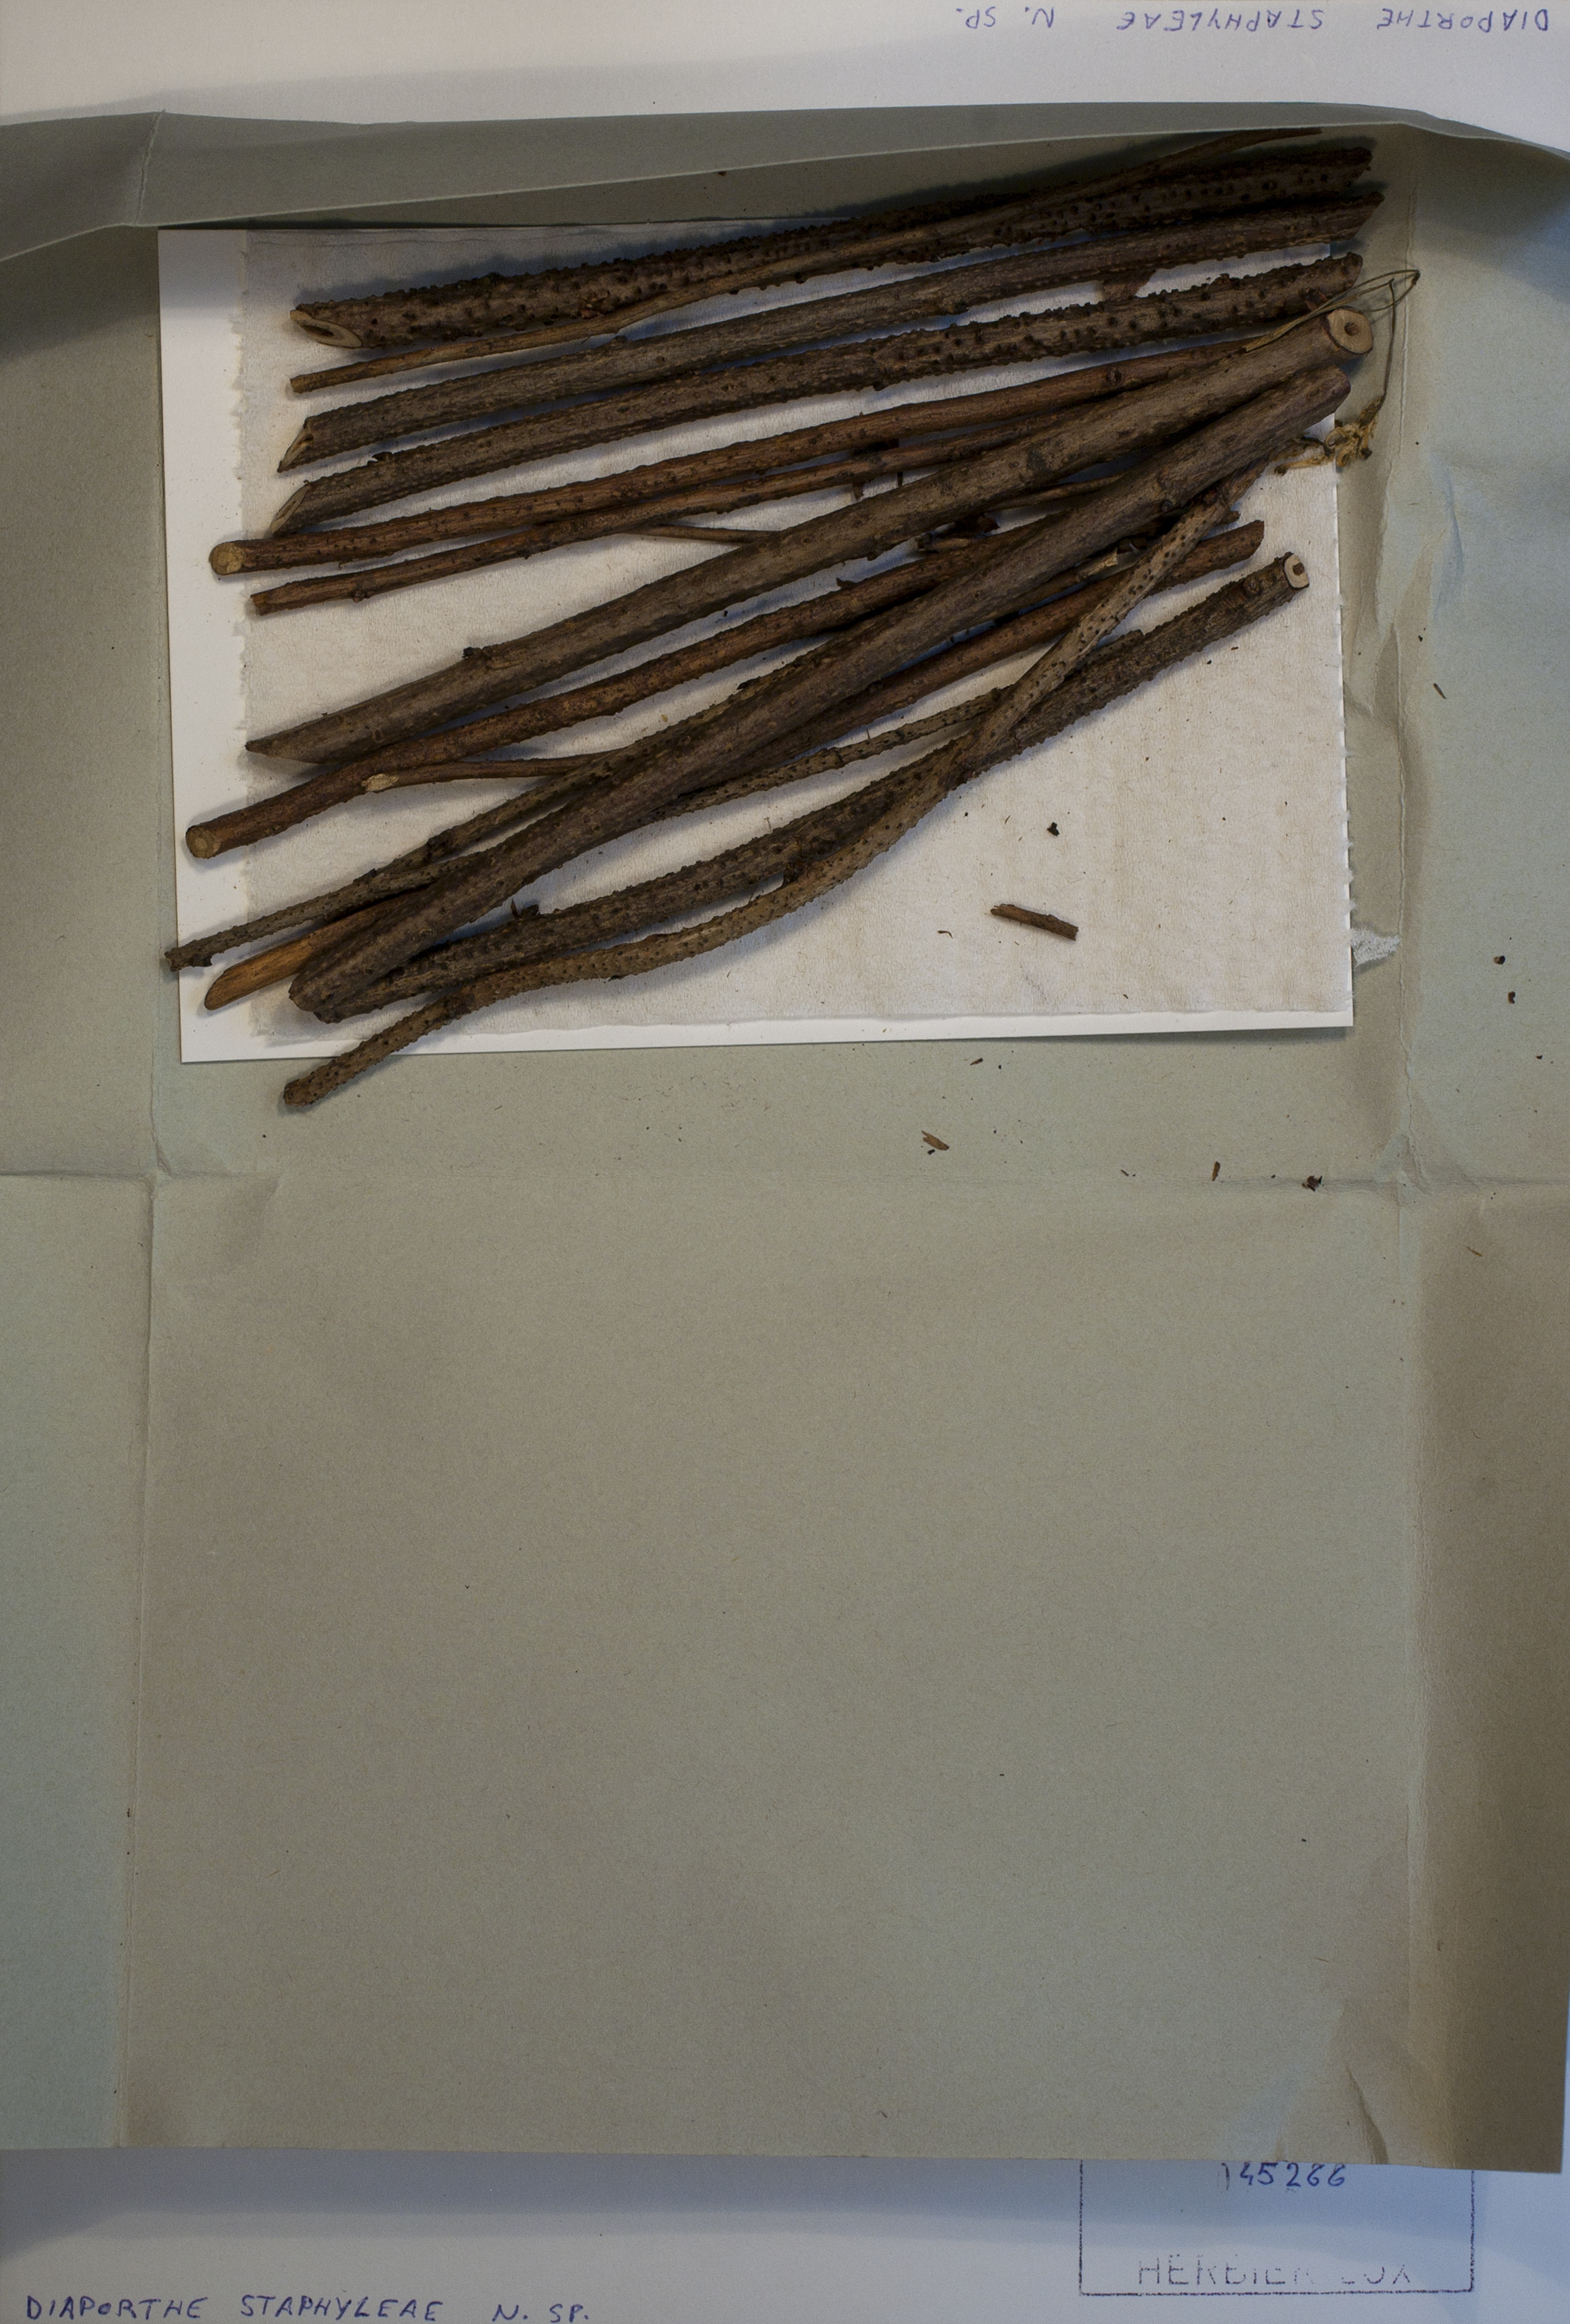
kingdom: Fungi
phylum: Ascomycota
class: Sordariomycetes
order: Diaporthales
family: Diaporthaceae
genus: Diaporthe
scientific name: Diaporthe
